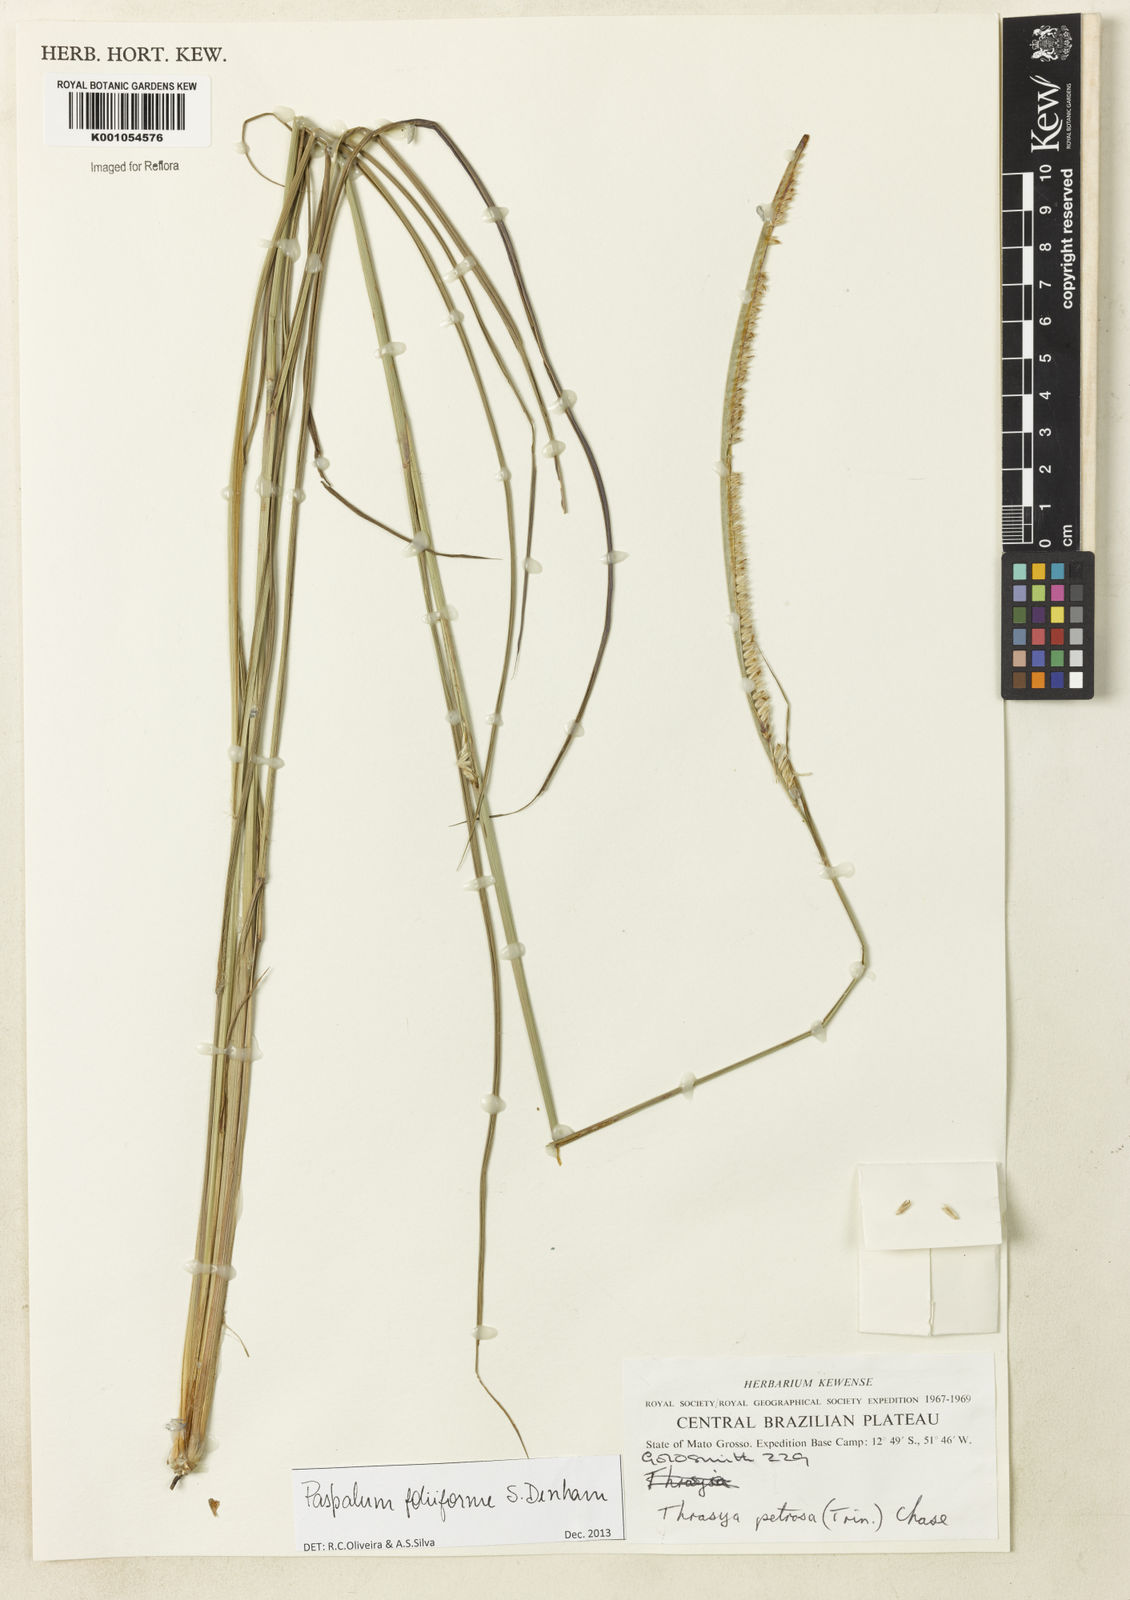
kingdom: Plantae
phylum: Tracheophyta
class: Liliopsida
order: Poales
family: Poaceae
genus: Paspalum
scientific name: Paspalum foliiforme
